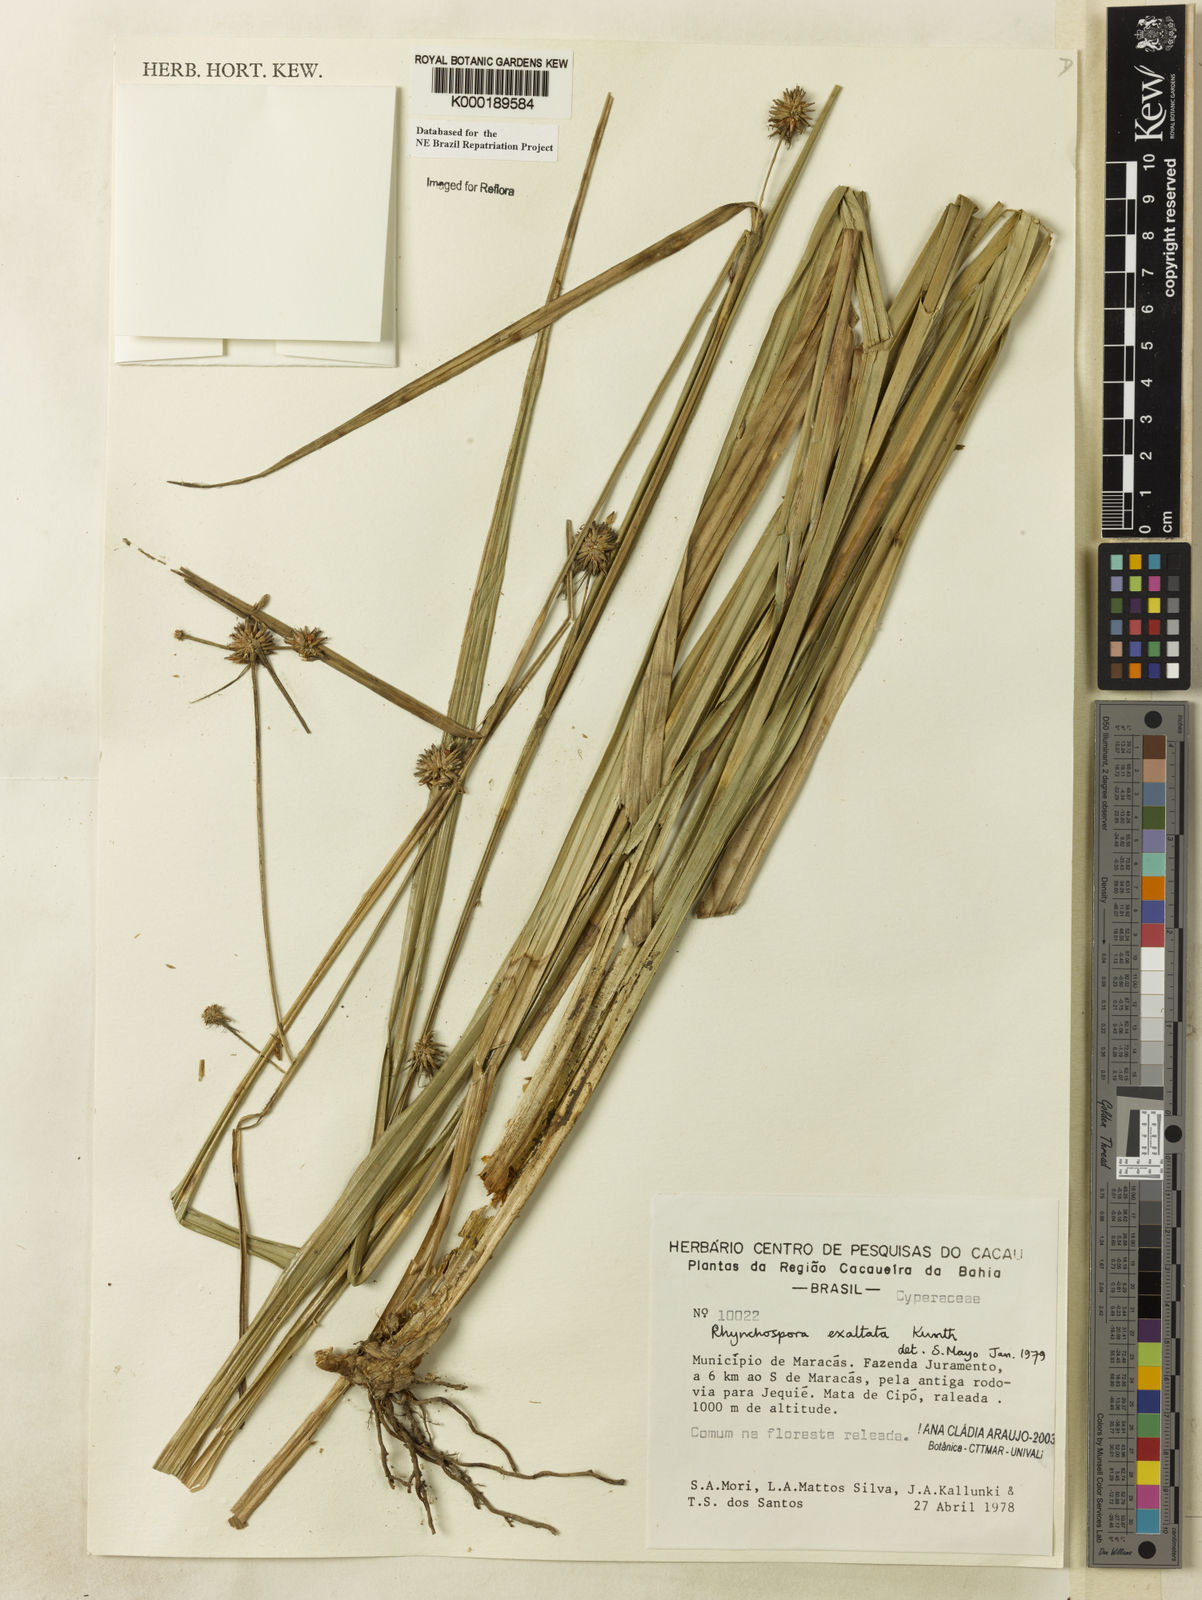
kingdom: Plantae
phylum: Tracheophyta
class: Liliopsida
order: Poales
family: Cyperaceae
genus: Rhynchospora
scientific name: Rhynchospora exaltata
